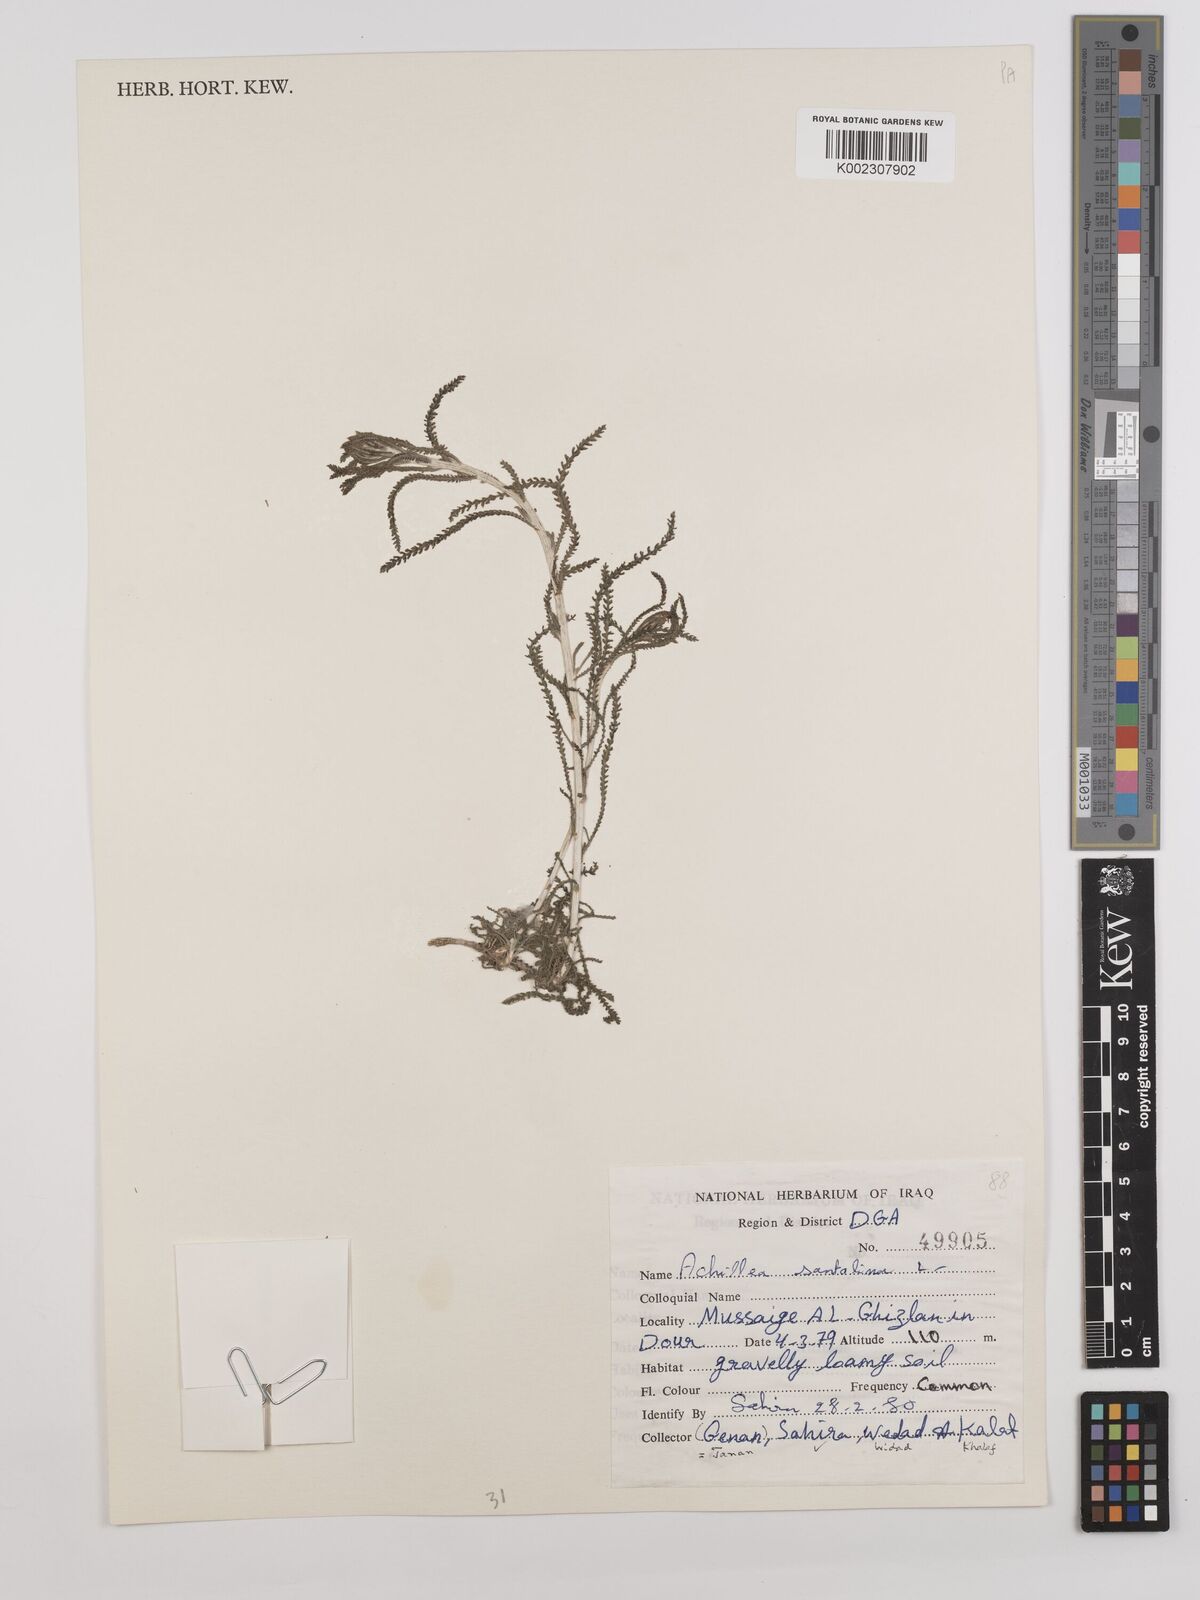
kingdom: Plantae
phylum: Tracheophyta
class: Magnoliopsida
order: Asterales
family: Asteraceae
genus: Achillea
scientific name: Achillea wilhelmsii
